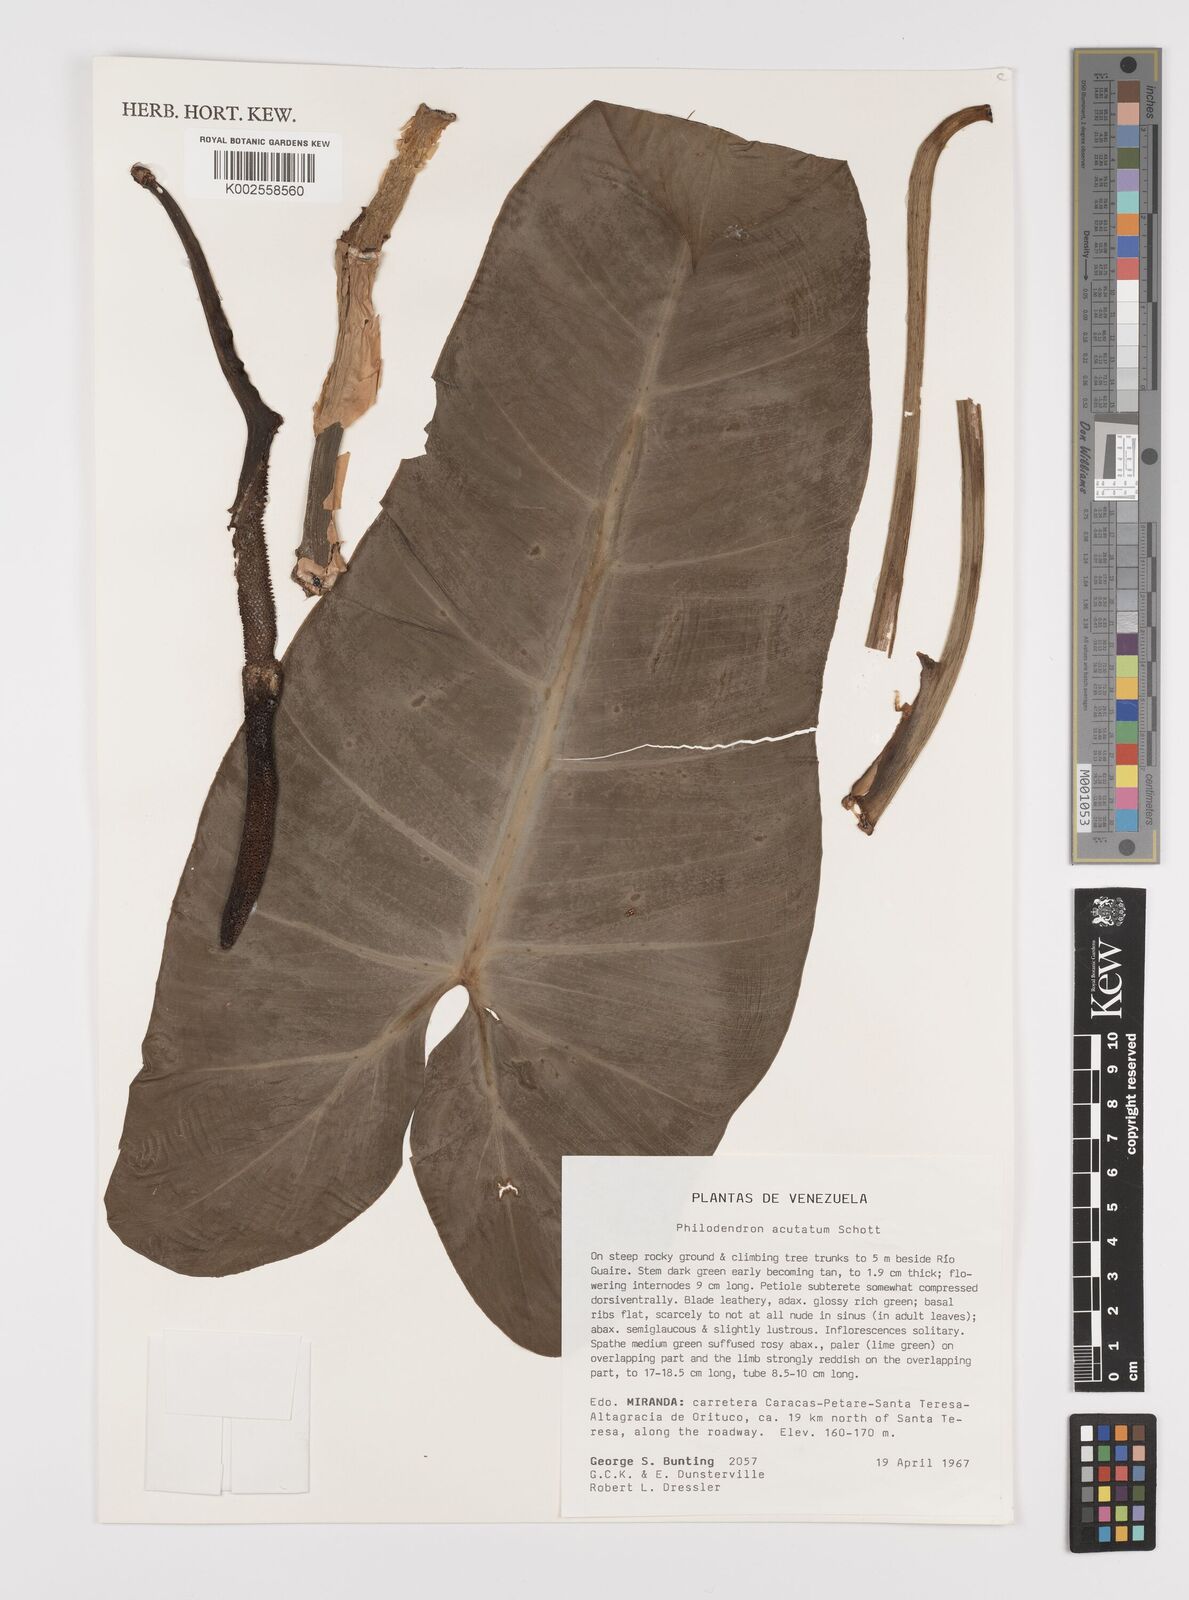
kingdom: Plantae
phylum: Tracheophyta
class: Liliopsida
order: Alismatales
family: Araceae
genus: Philodendron
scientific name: Philodendron quinquenervium
